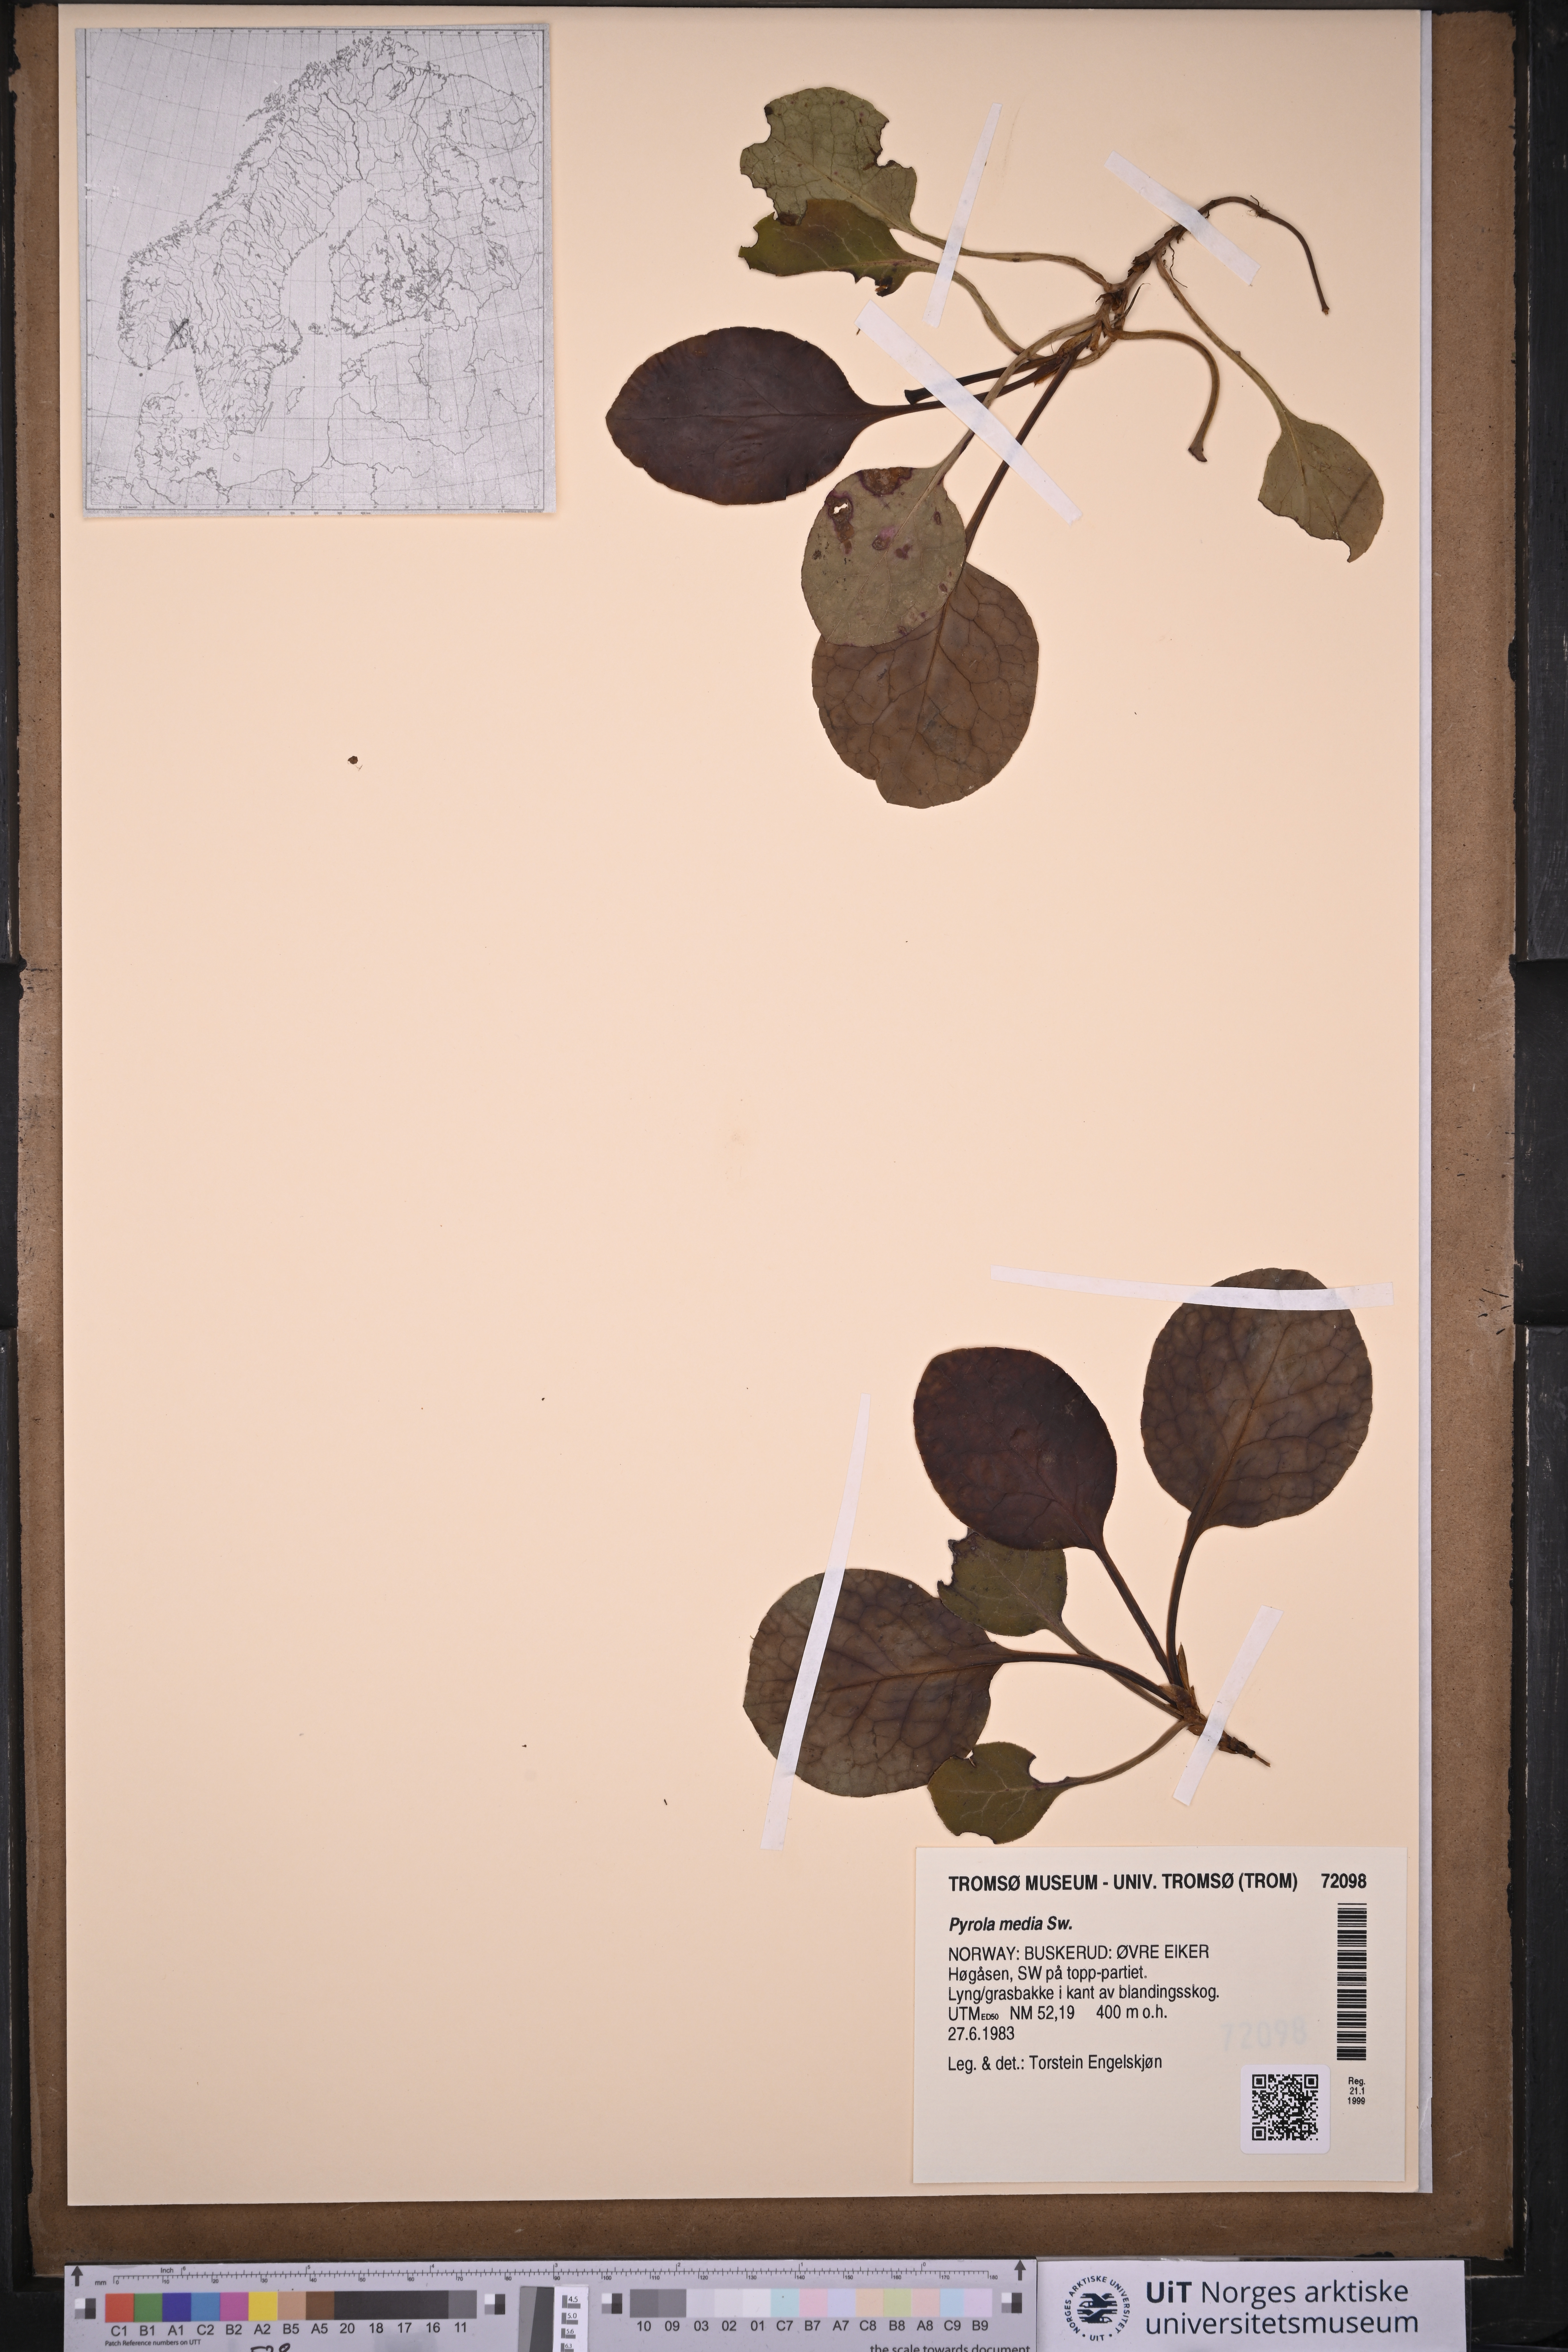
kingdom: Plantae
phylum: Tracheophyta
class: Magnoliopsida
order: Ericales
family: Ericaceae
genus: Pyrola
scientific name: Pyrola media
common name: Intermediate wintergreen
